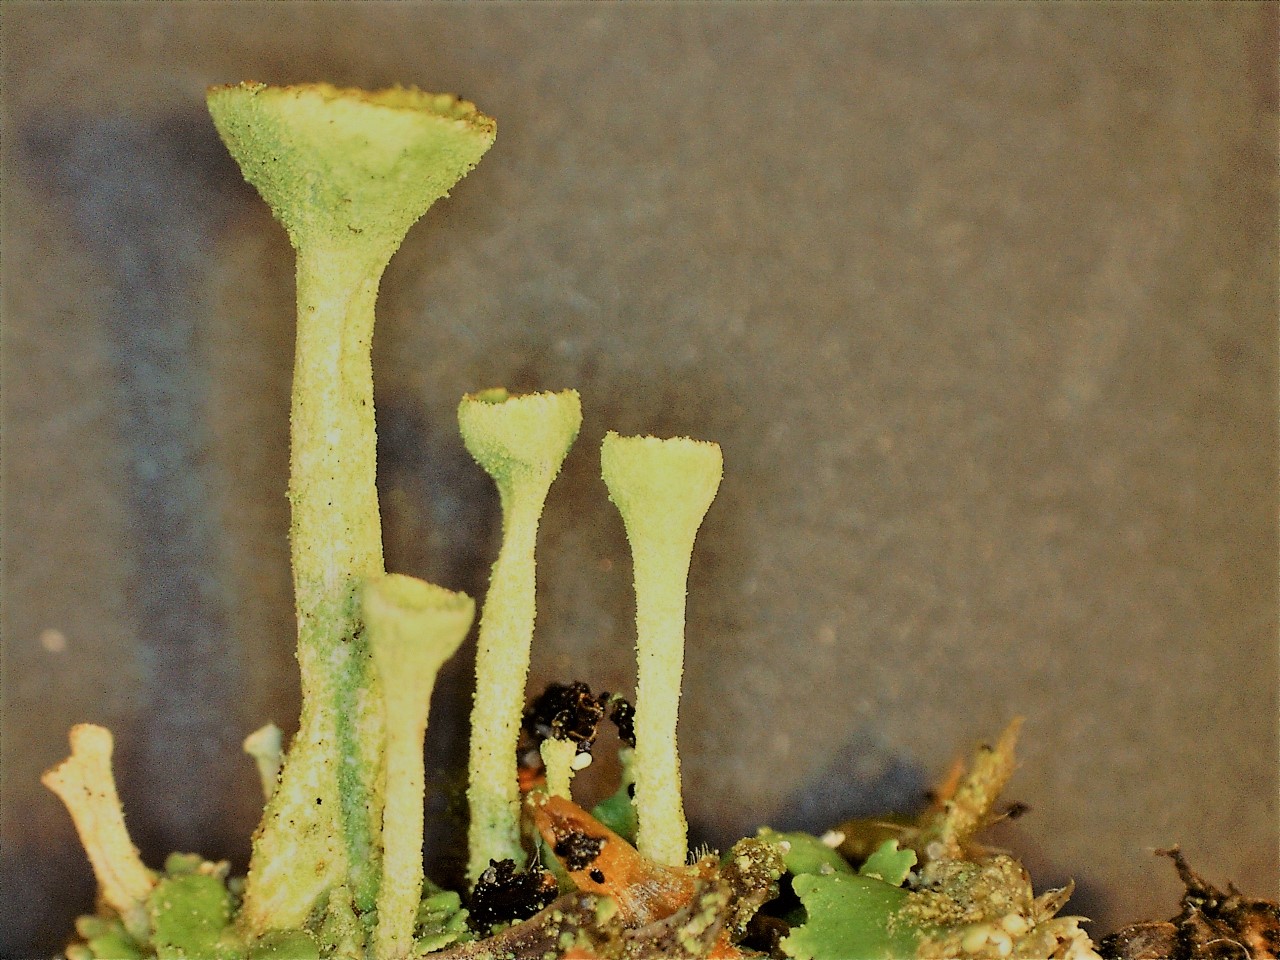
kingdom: Fungi
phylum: Ascomycota
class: Lecanoromycetes
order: Lecanorales
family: Cladoniaceae
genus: Cladonia
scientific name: Cladonia fimbriata
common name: bleggrøn bægerlav
